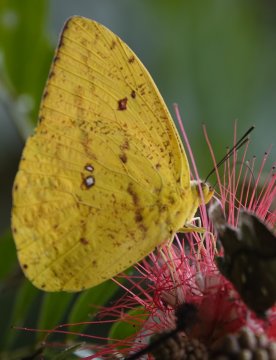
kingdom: Animalia
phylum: Arthropoda
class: Insecta
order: Lepidoptera
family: Pieridae
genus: Phoebis
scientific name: Phoebis argante
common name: Apricot Sulphur
